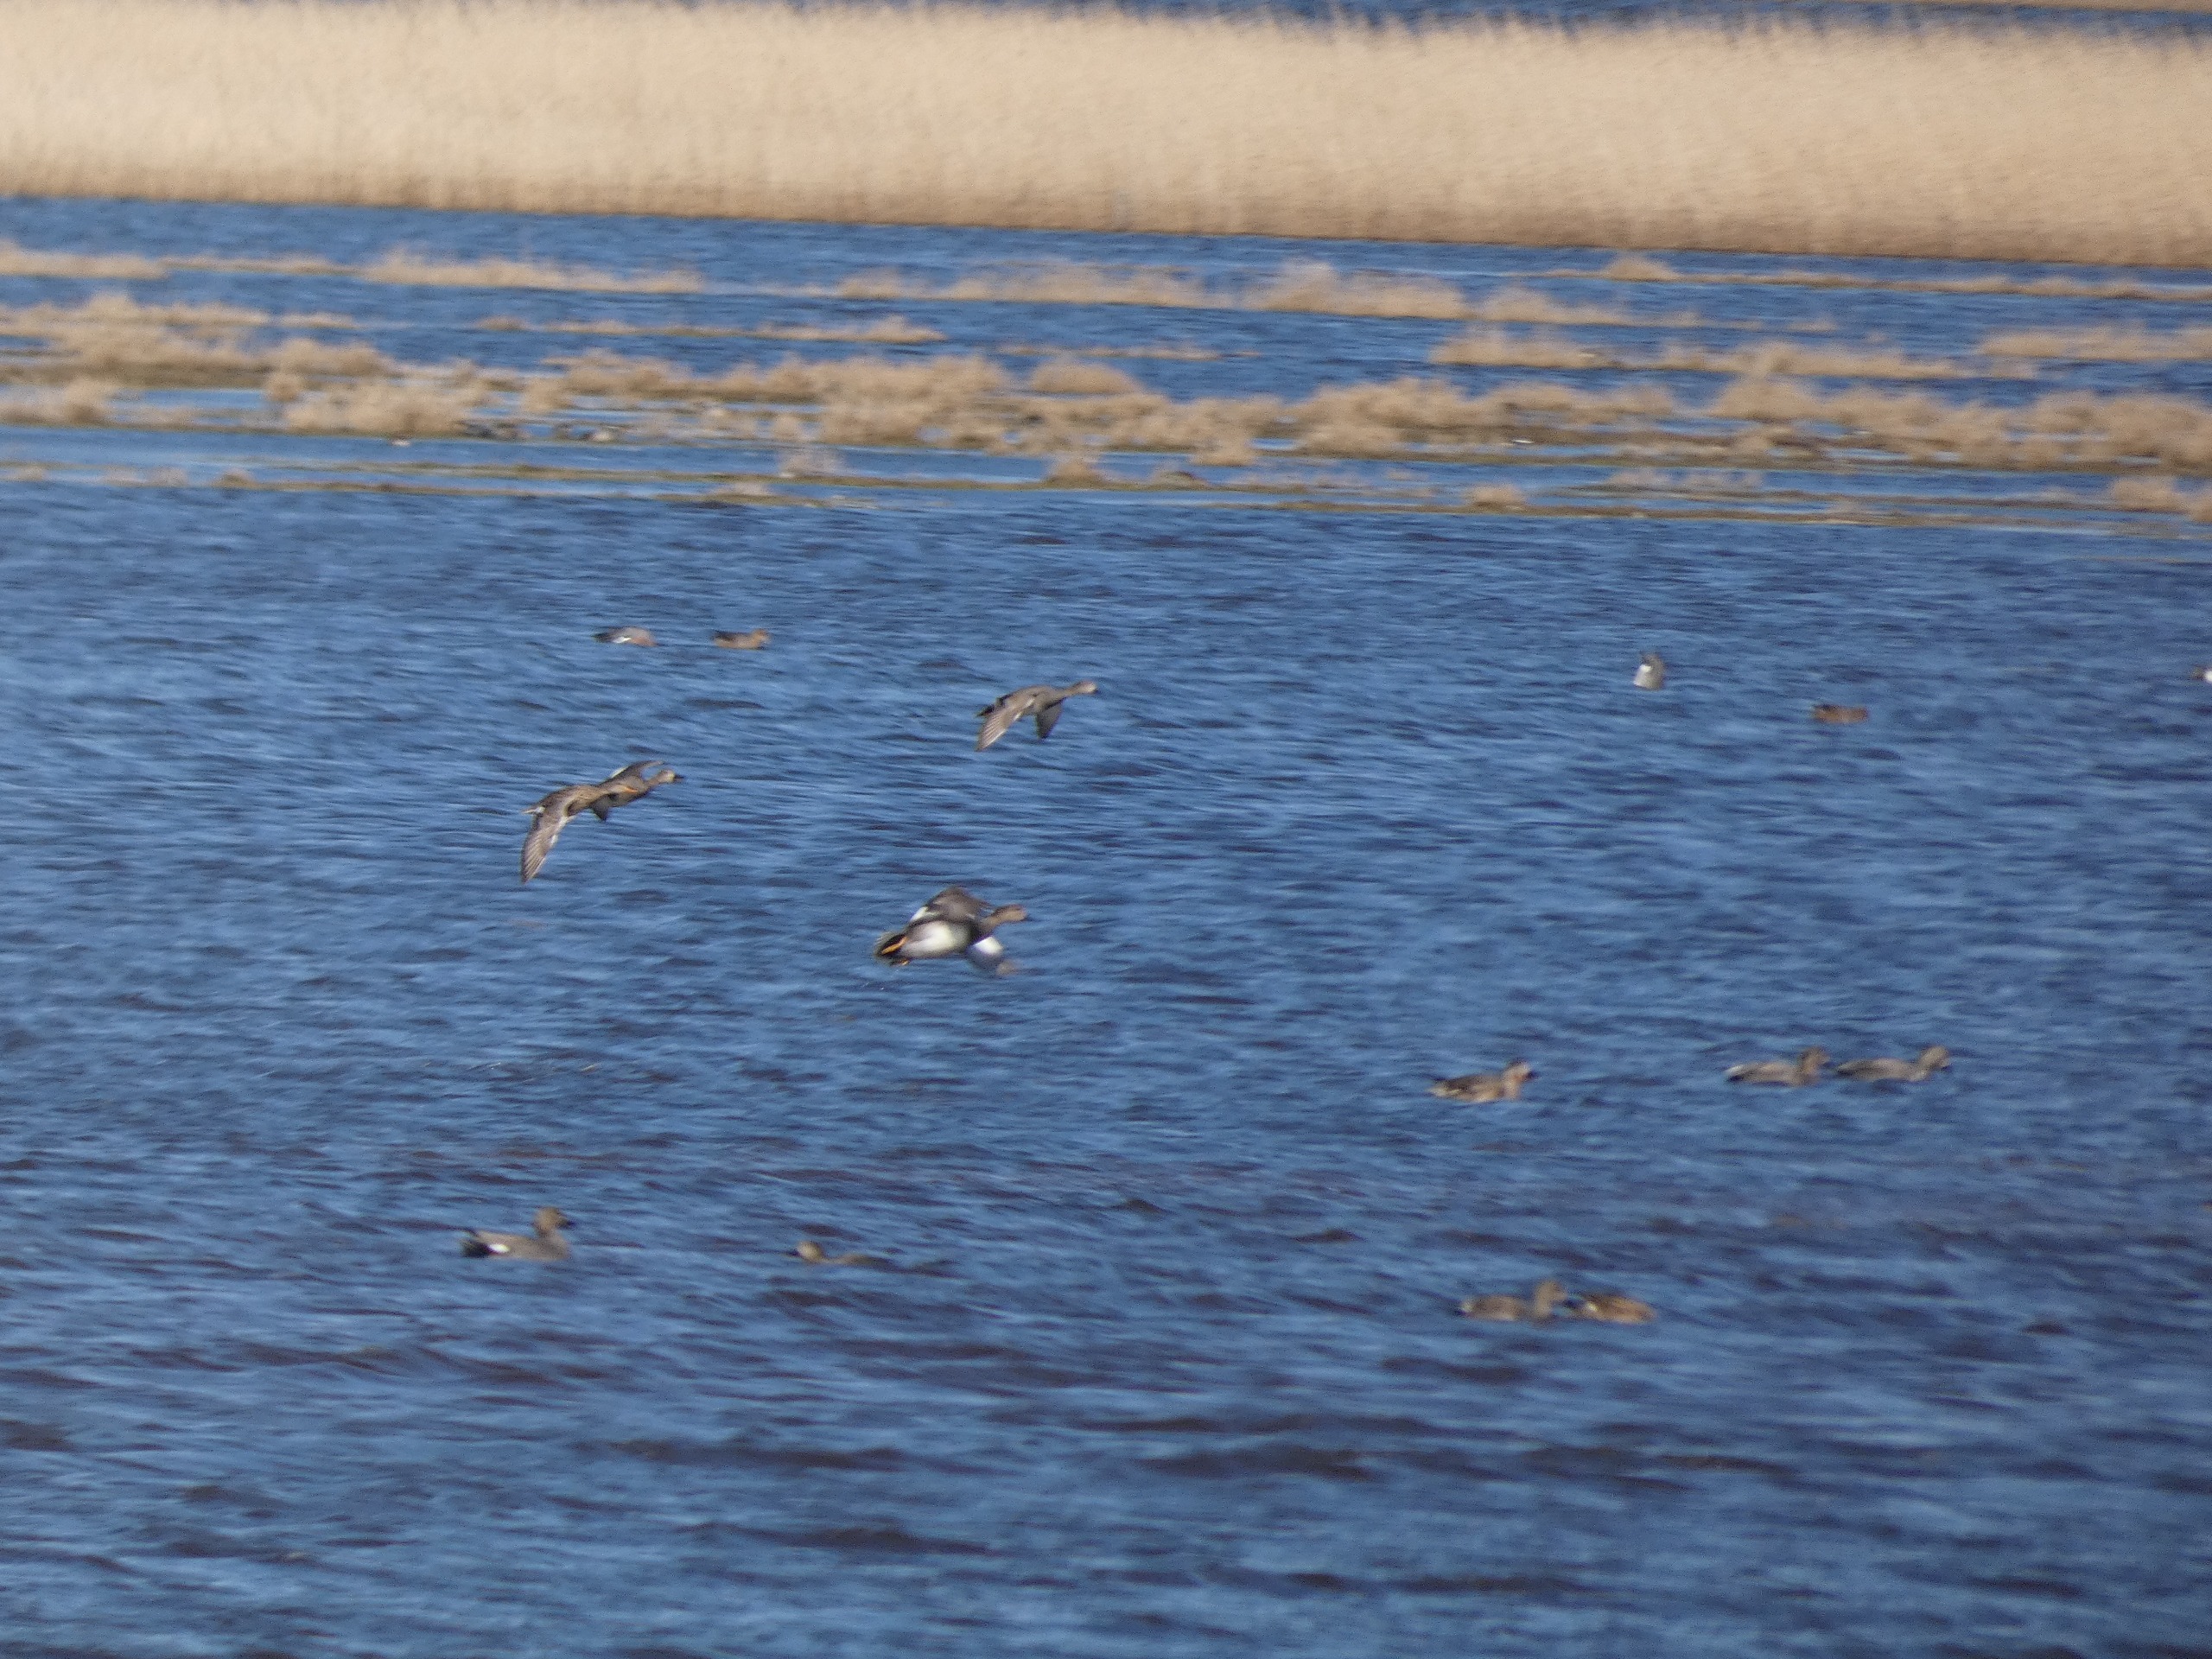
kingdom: Animalia
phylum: Chordata
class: Aves
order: Anseriformes
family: Anatidae
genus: Mareca
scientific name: Mareca strepera
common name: Knarand
